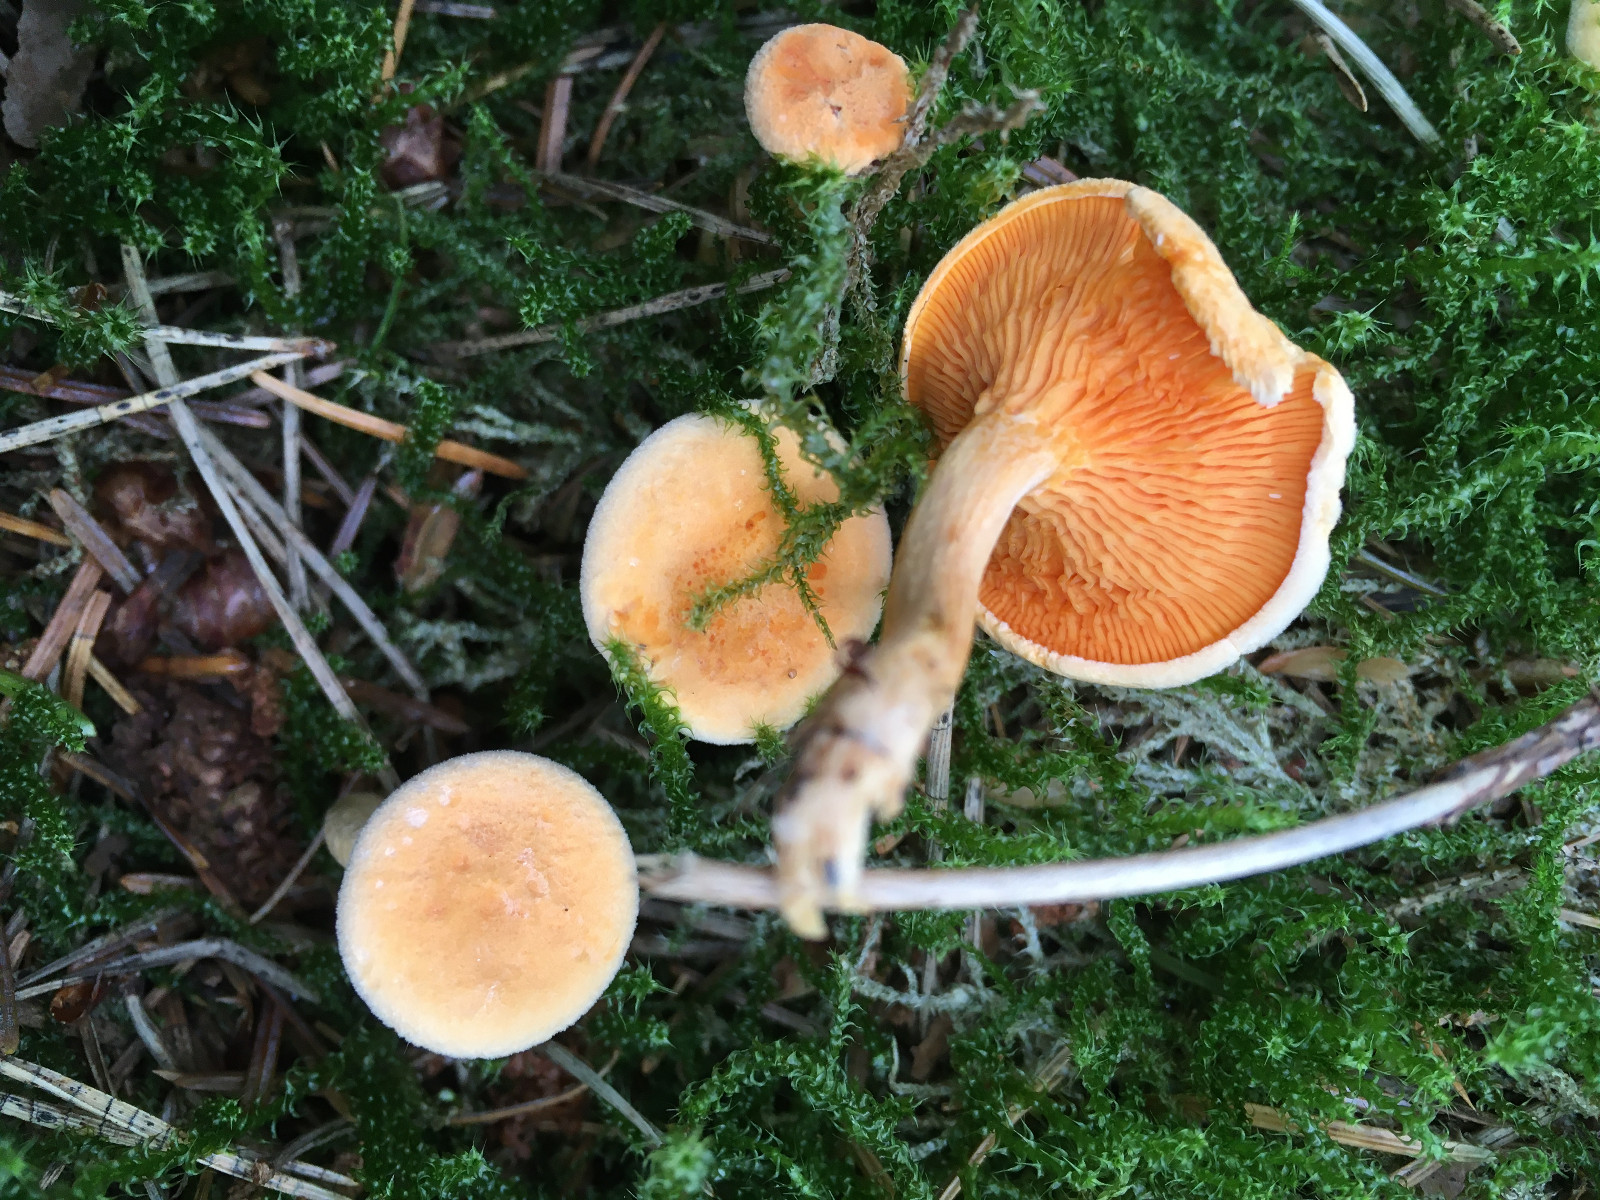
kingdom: Fungi
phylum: Basidiomycota
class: Agaricomycetes
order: Boletales
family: Hygrophoropsidaceae
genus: Hygrophoropsis
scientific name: Hygrophoropsis aurantiaca
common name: almindelig orangekantarel
